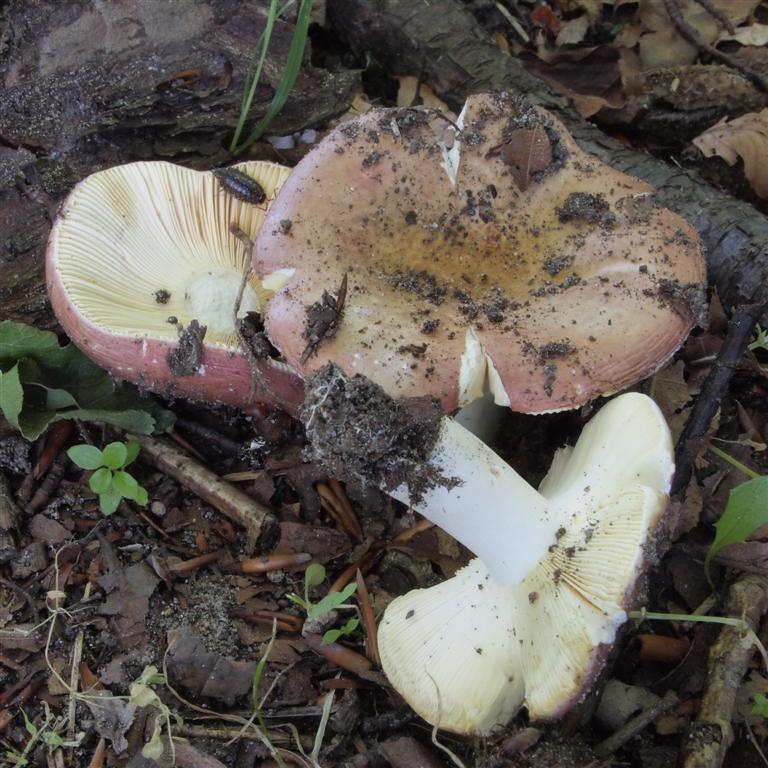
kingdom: Fungi
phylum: Basidiomycota
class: Agaricomycetes
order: Russulales
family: Russulaceae
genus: Russula
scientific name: Russula
